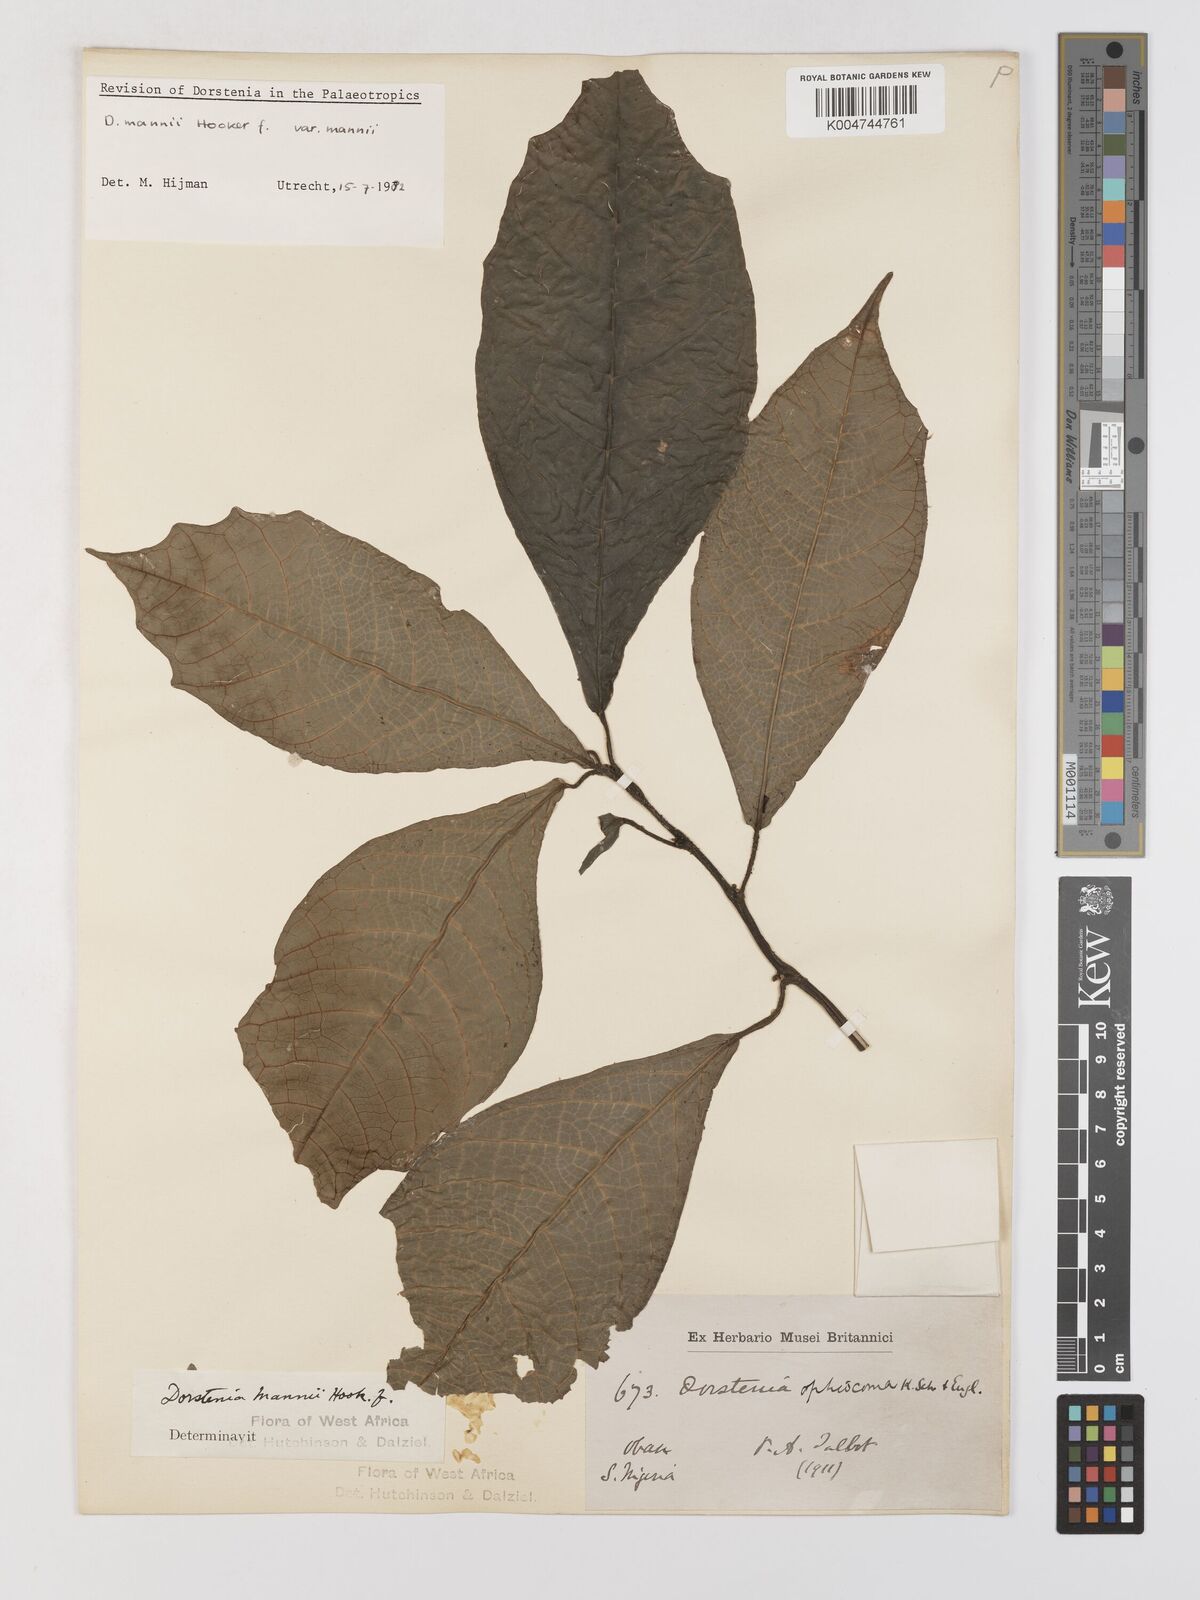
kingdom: Plantae
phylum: Tracheophyta
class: Magnoliopsida
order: Rosales
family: Moraceae
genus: Dorstenia
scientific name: Dorstenia mannii
